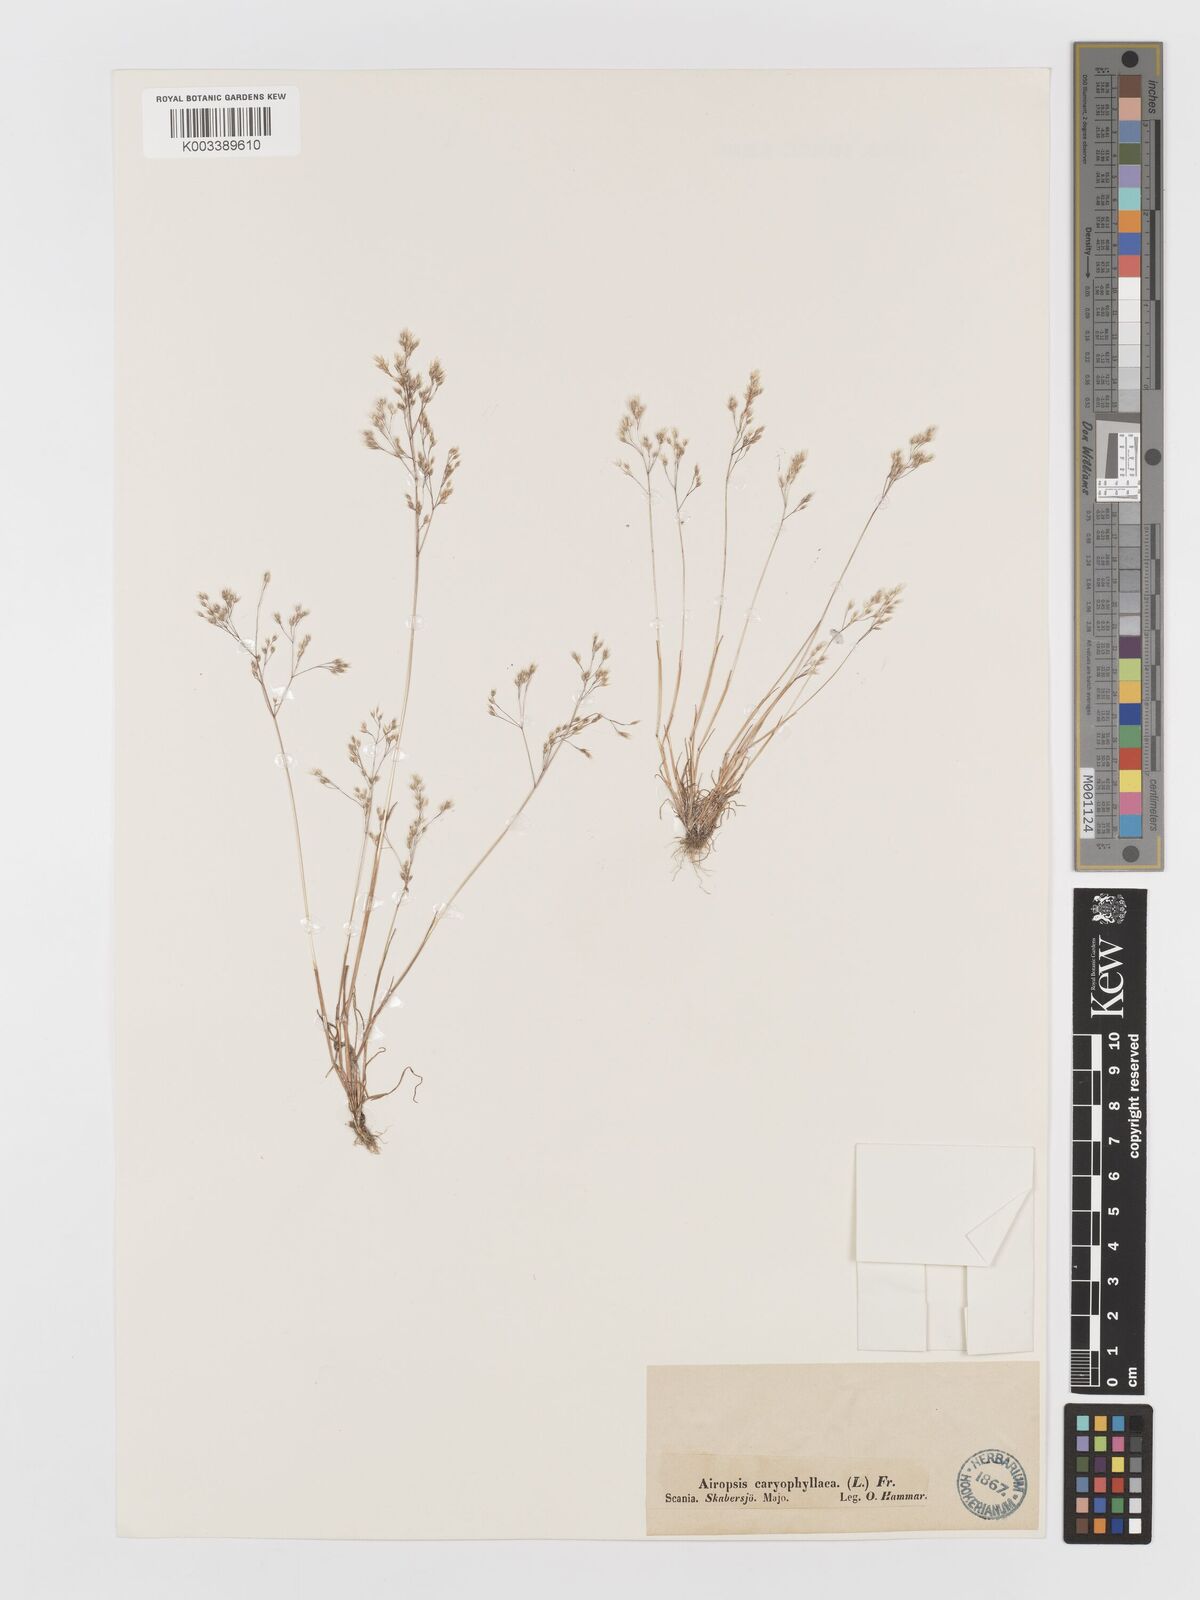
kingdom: Plantae
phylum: Tracheophyta
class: Liliopsida
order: Poales
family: Poaceae
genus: Aira
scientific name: Aira caryophyllea
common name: Silver hairgrass
